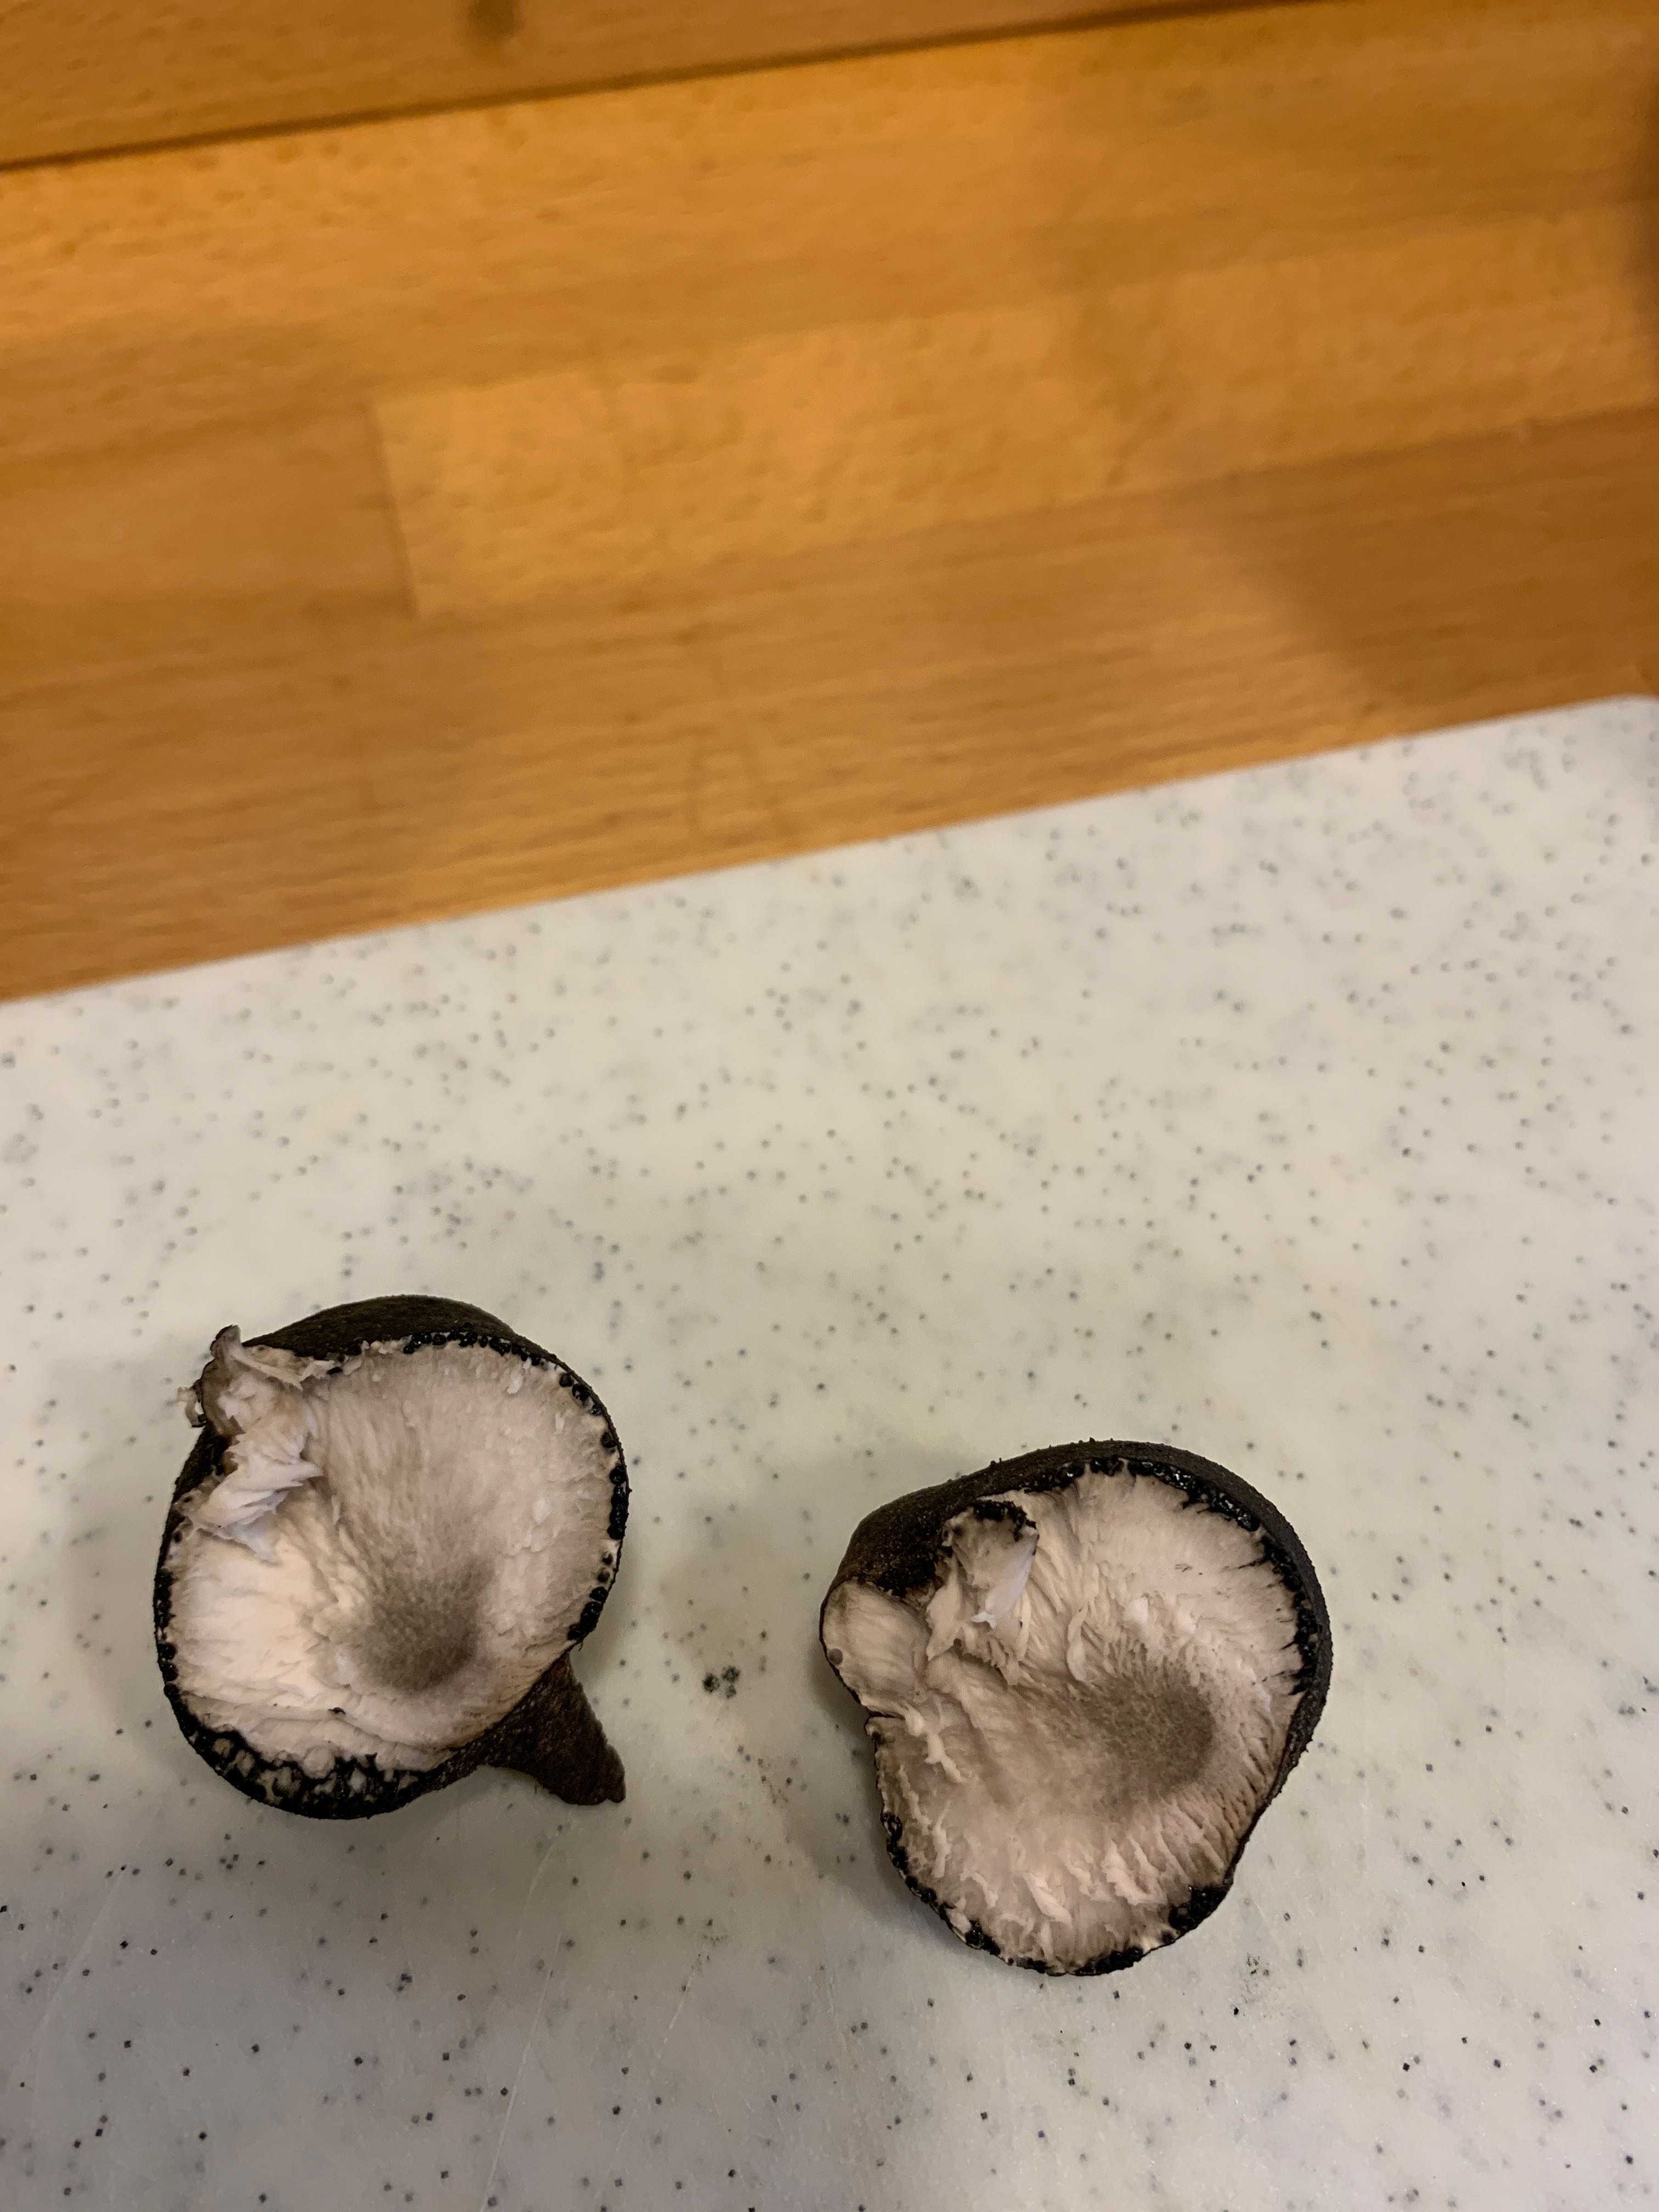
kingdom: Fungi
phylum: Ascomycota
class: Sordariomycetes
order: Xylariales
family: Xylariaceae
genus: Xylaria
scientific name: Xylaria polymorpha
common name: kølle-stødsvamp
